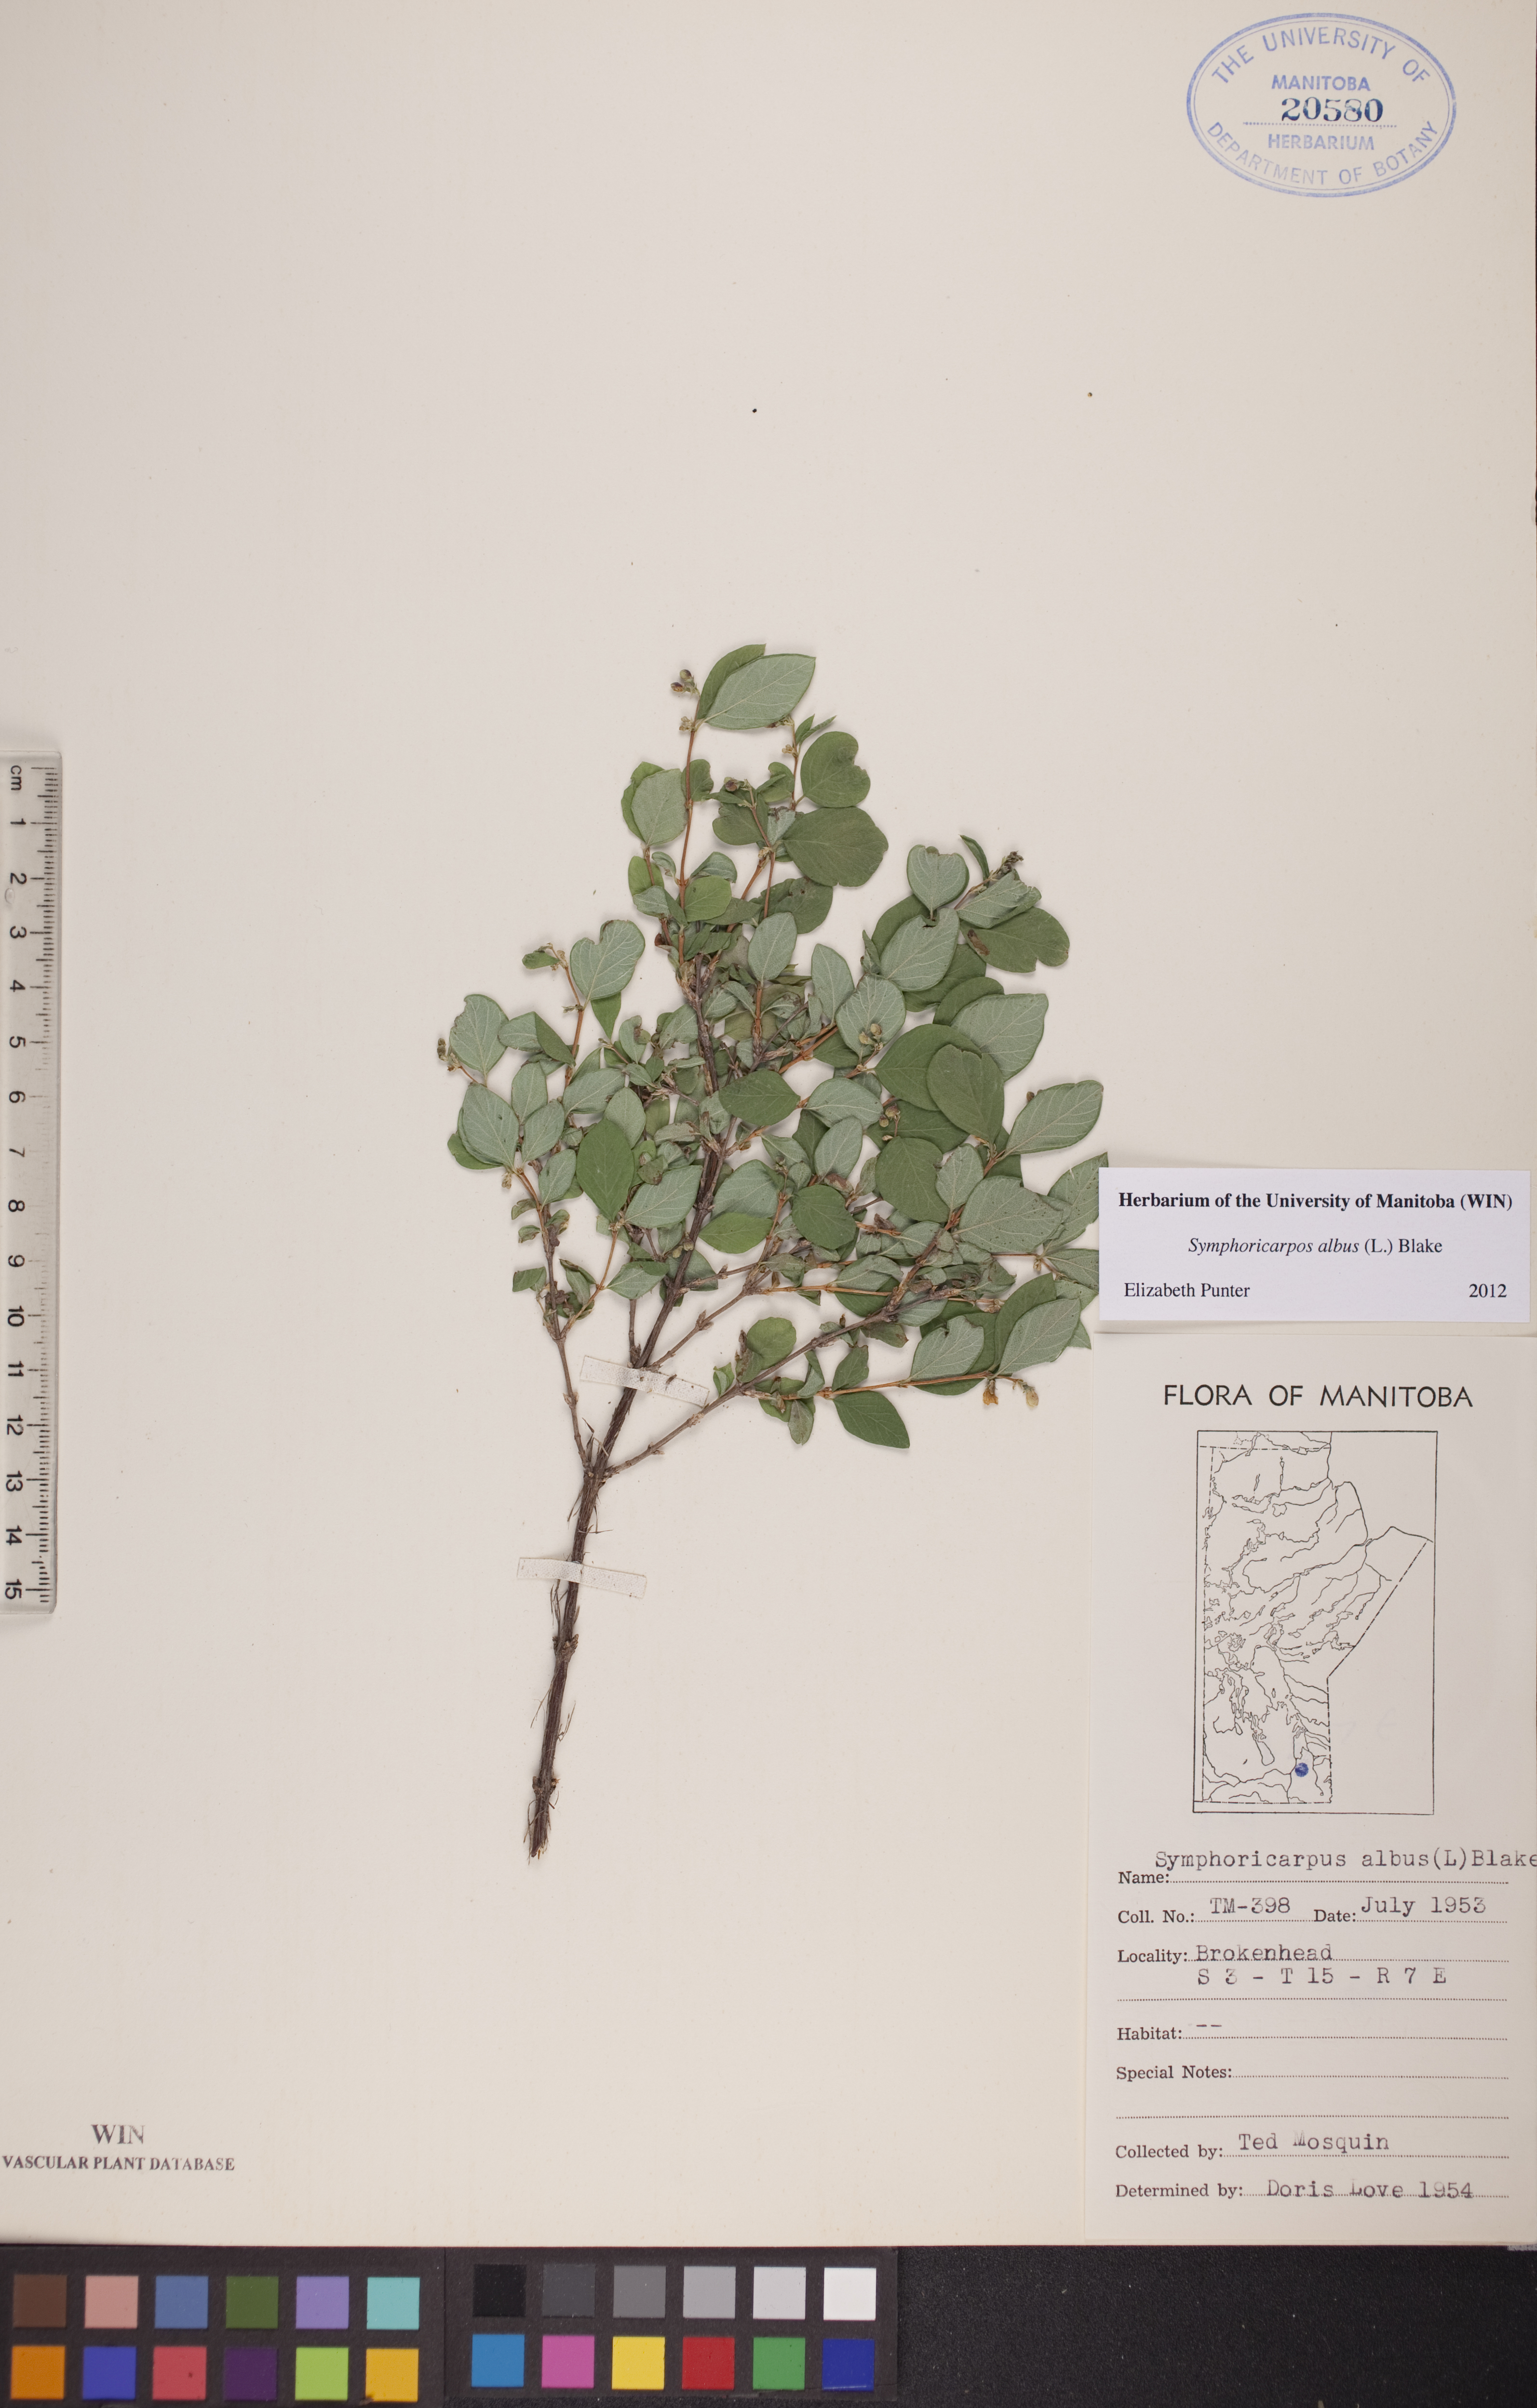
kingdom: Plantae
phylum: Tracheophyta
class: Magnoliopsida
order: Dipsacales
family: Caprifoliaceae
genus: Symphoricarpos
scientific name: Symphoricarpos albus
